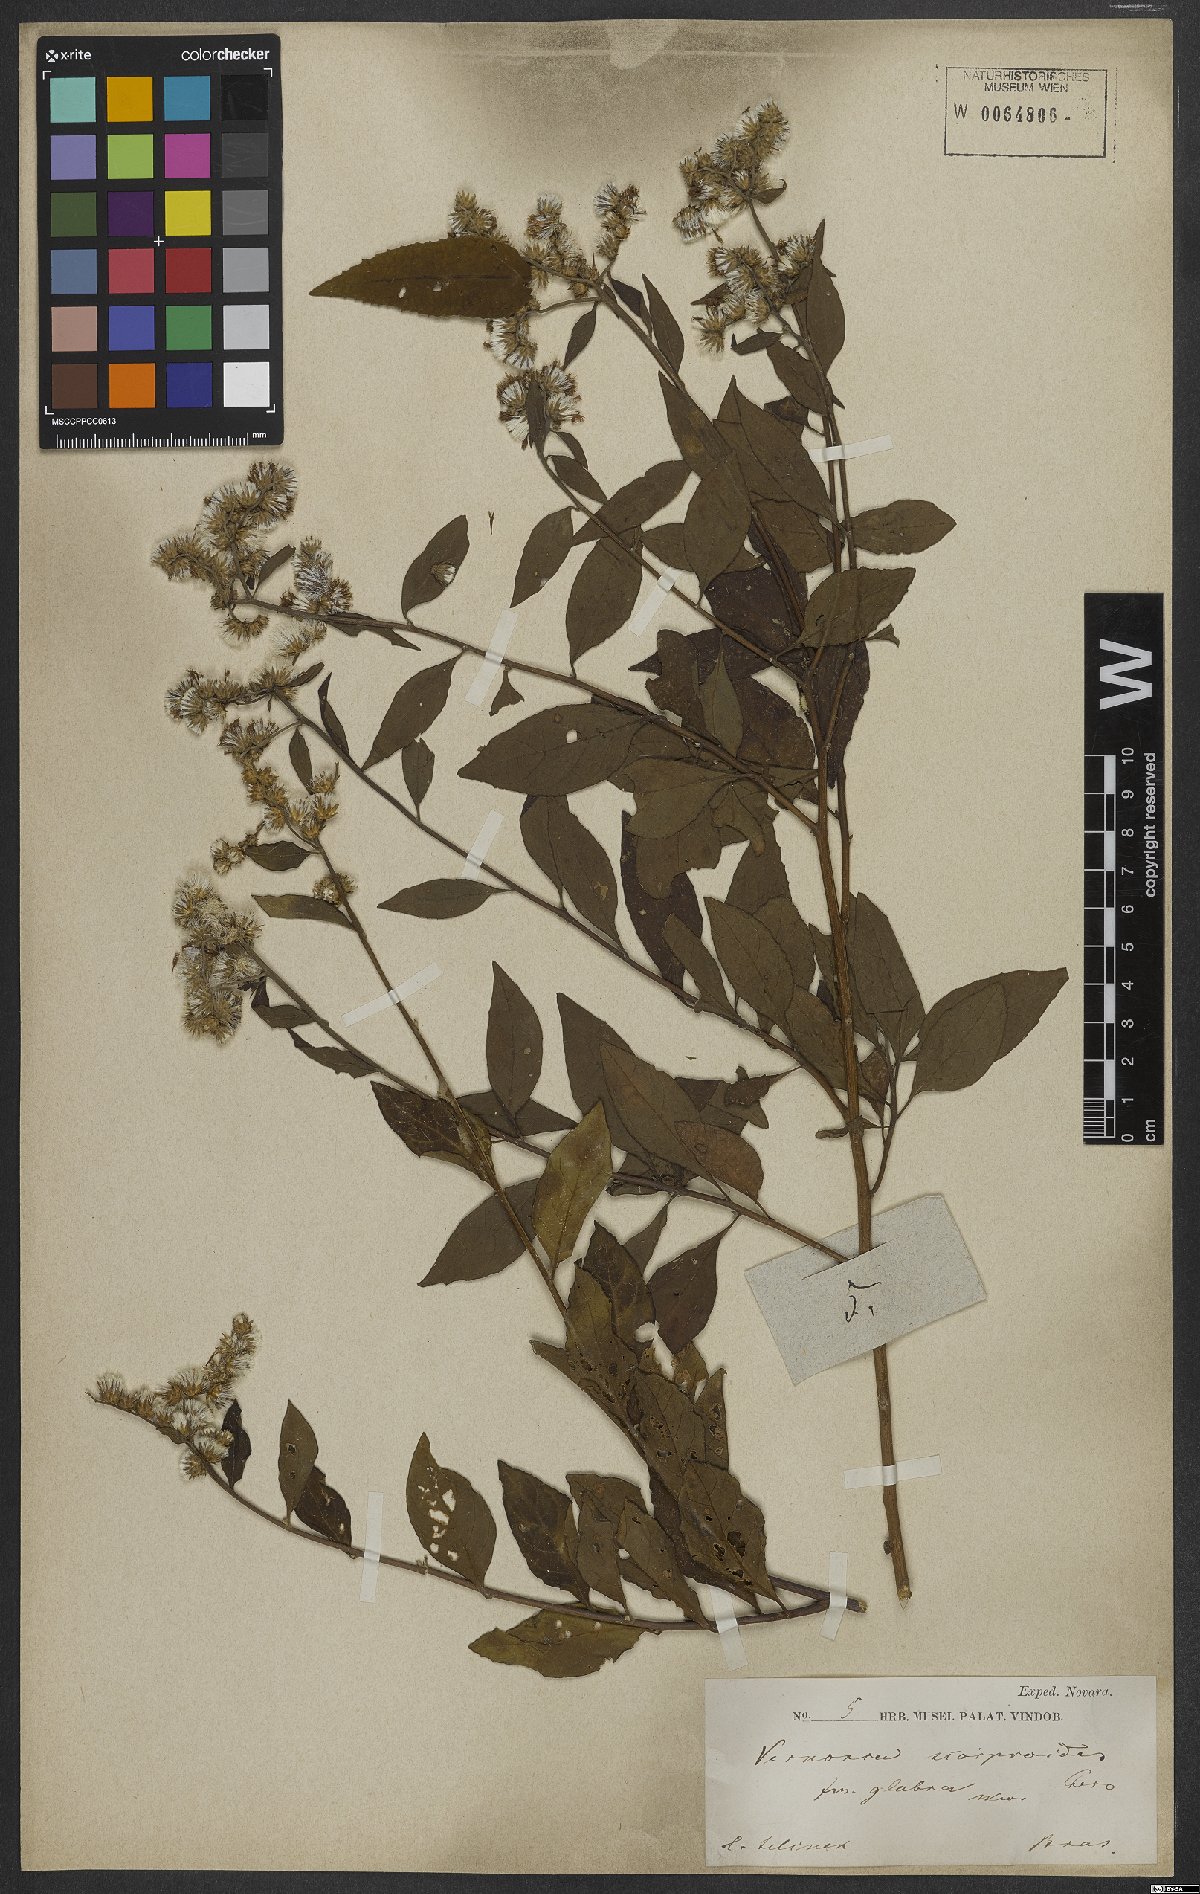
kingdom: Plantae
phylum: Tracheophyta
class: Magnoliopsida
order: Asterales
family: Asteraceae
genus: Cyrtocymura
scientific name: Cyrtocymura scorpioides
